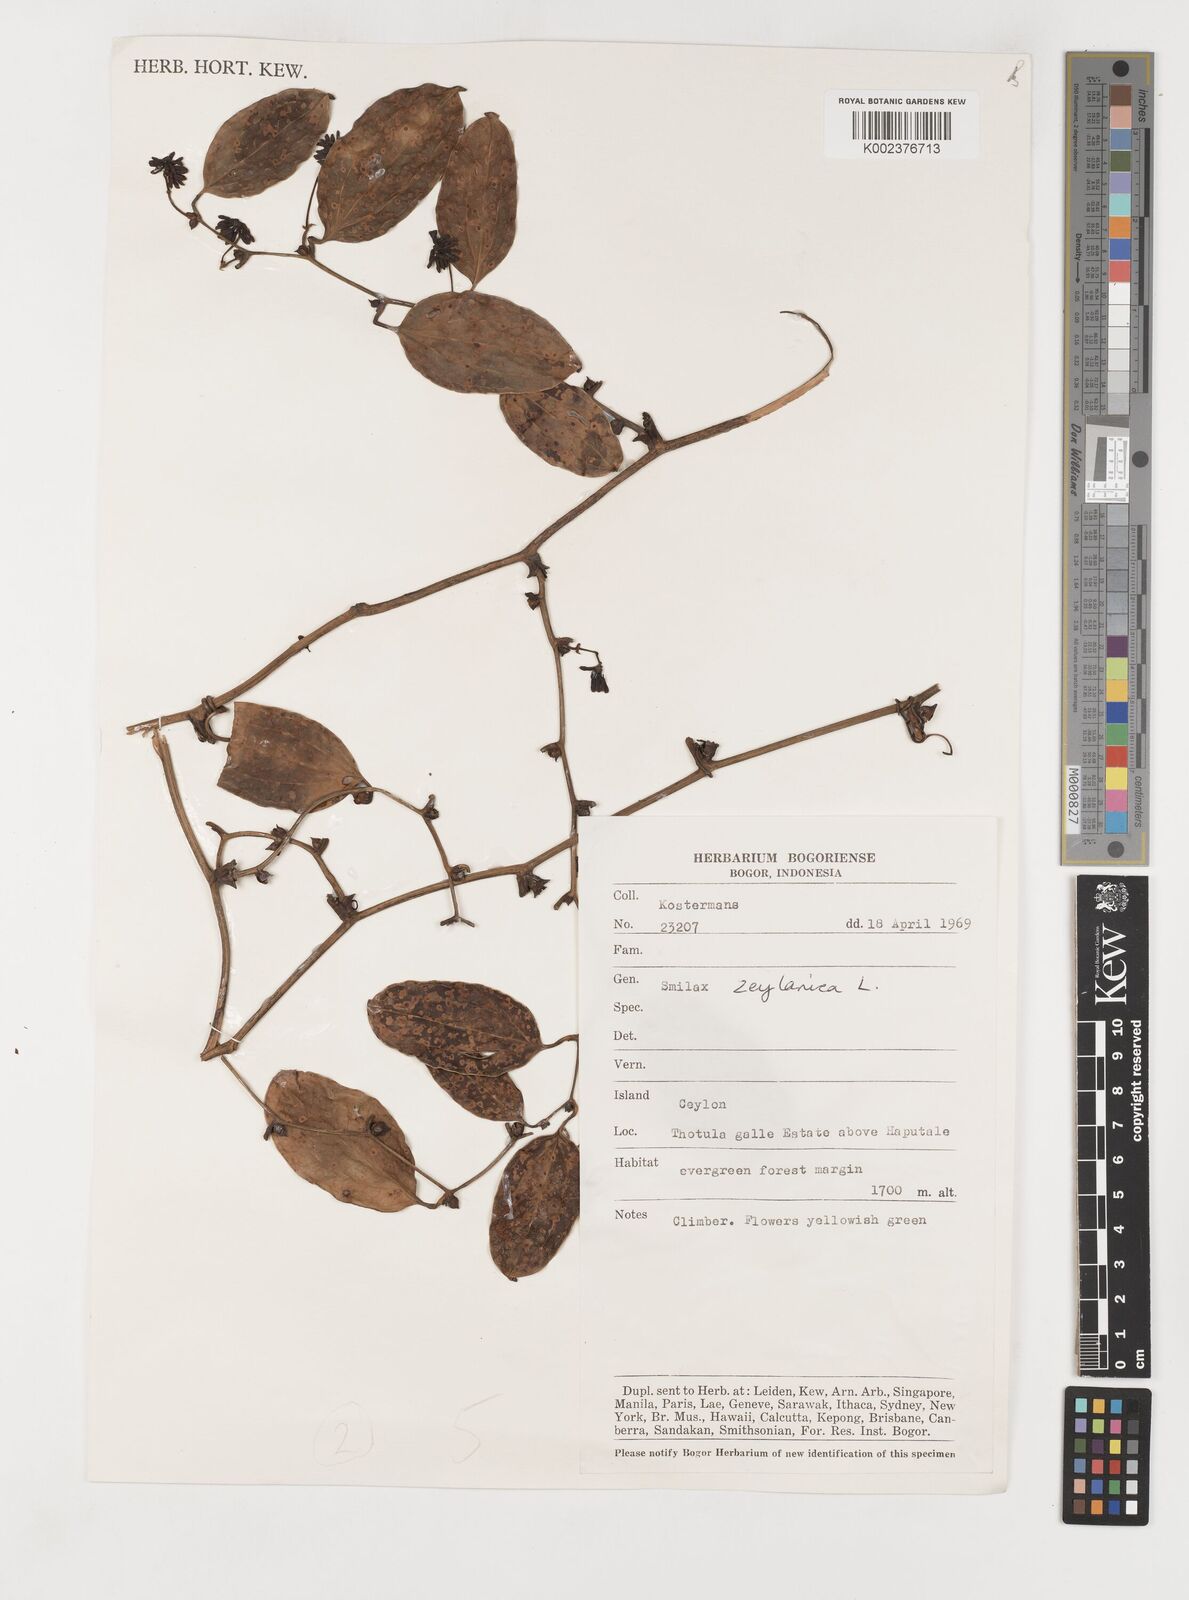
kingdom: Plantae
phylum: Tracheophyta
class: Liliopsida
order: Liliales
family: Smilacaceae
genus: Smilax
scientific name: Smilax zeylanica
